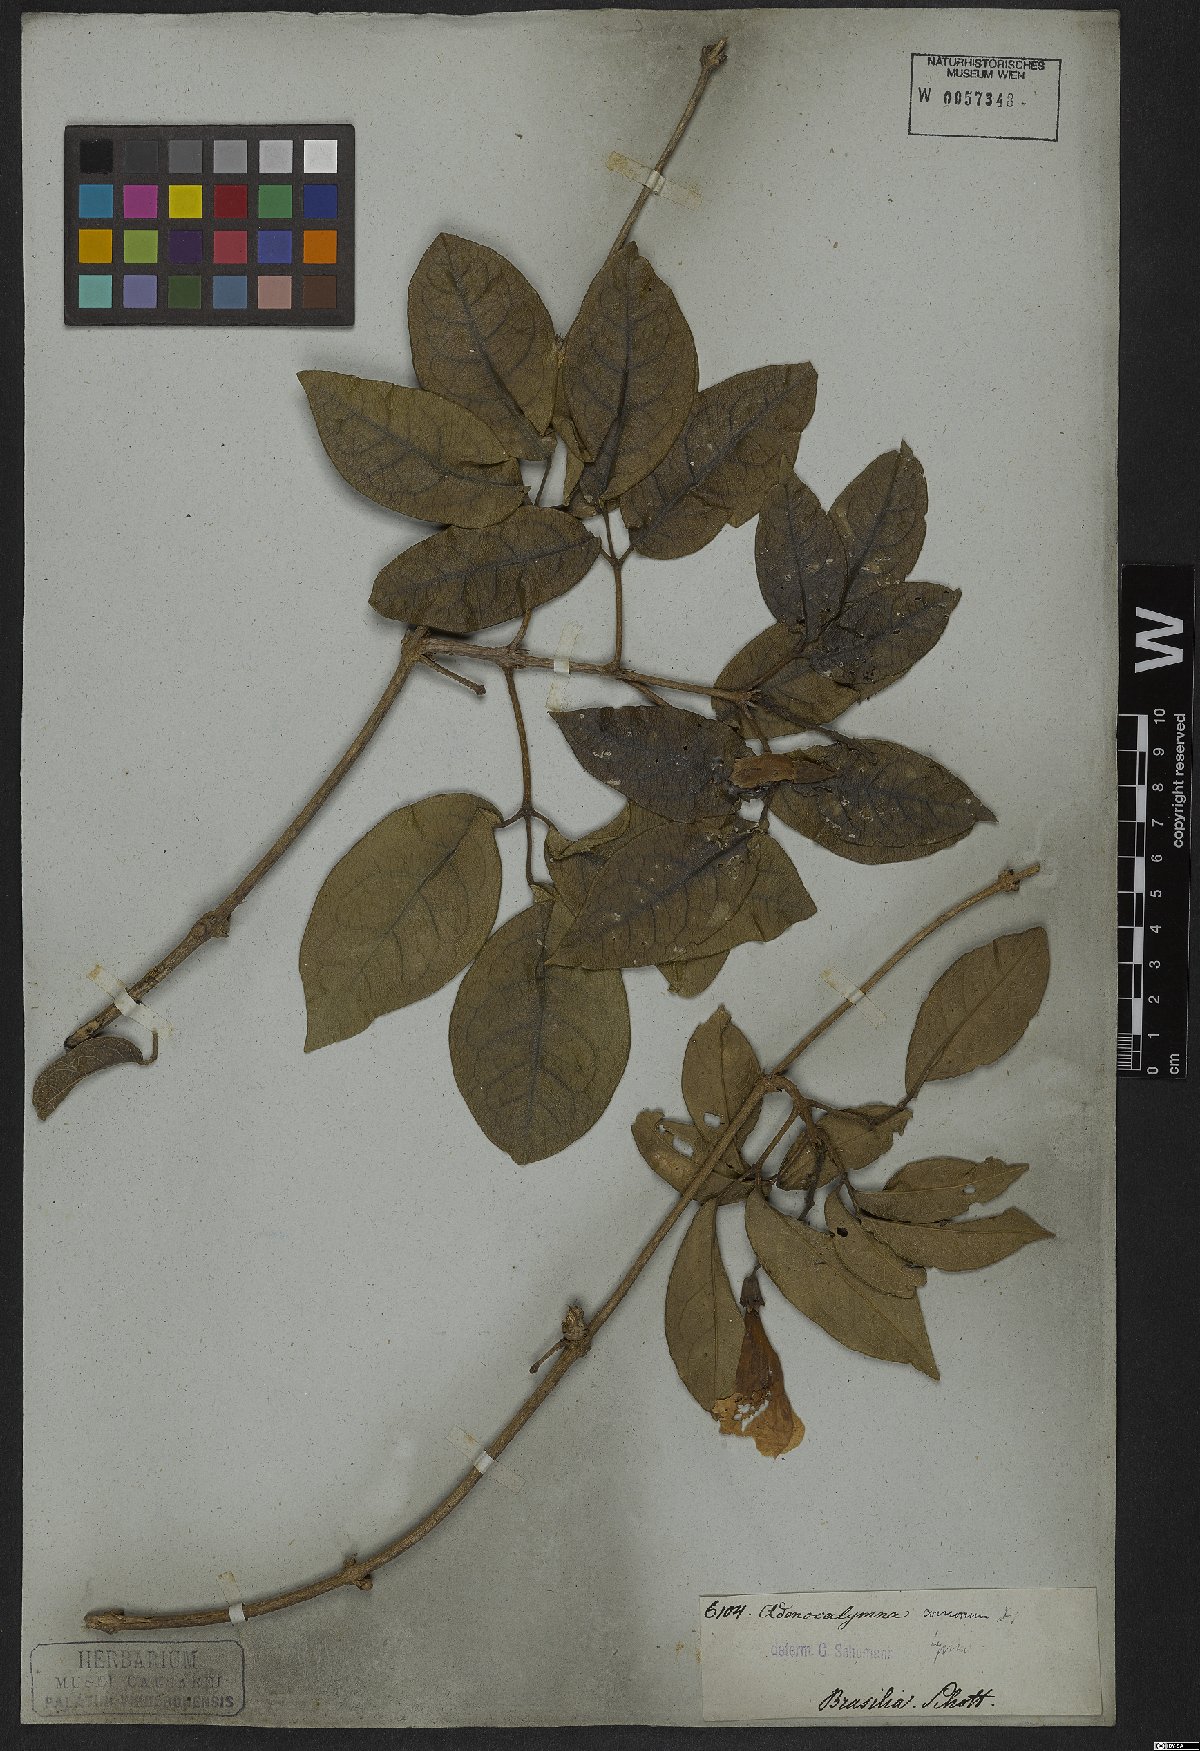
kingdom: Plantae
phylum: Tracheophyta
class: Magnoliopsida
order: Lamiales
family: Bignoniaceae
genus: Adenocalymma
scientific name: Adenocalymma acutissimum
